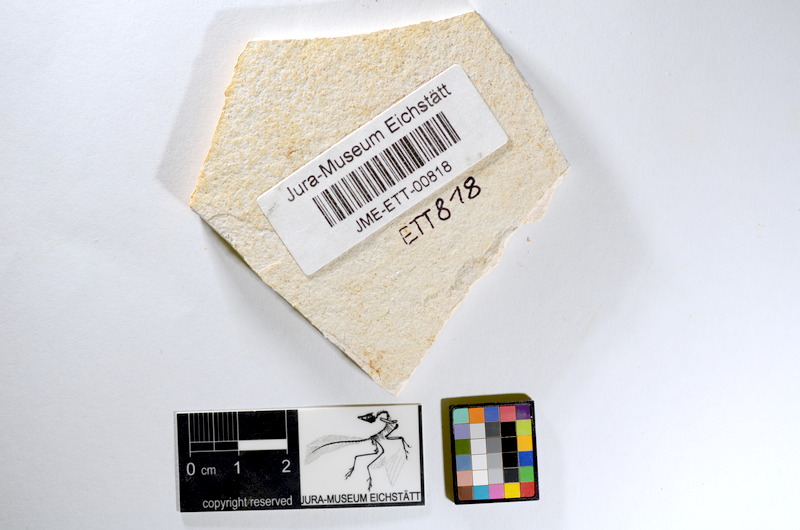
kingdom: Animalia
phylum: Chordata
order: Salmoniformes
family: Orthogonikleithridae
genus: Orthogonikleithrus
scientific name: Orthogonikleithrus hoelli
